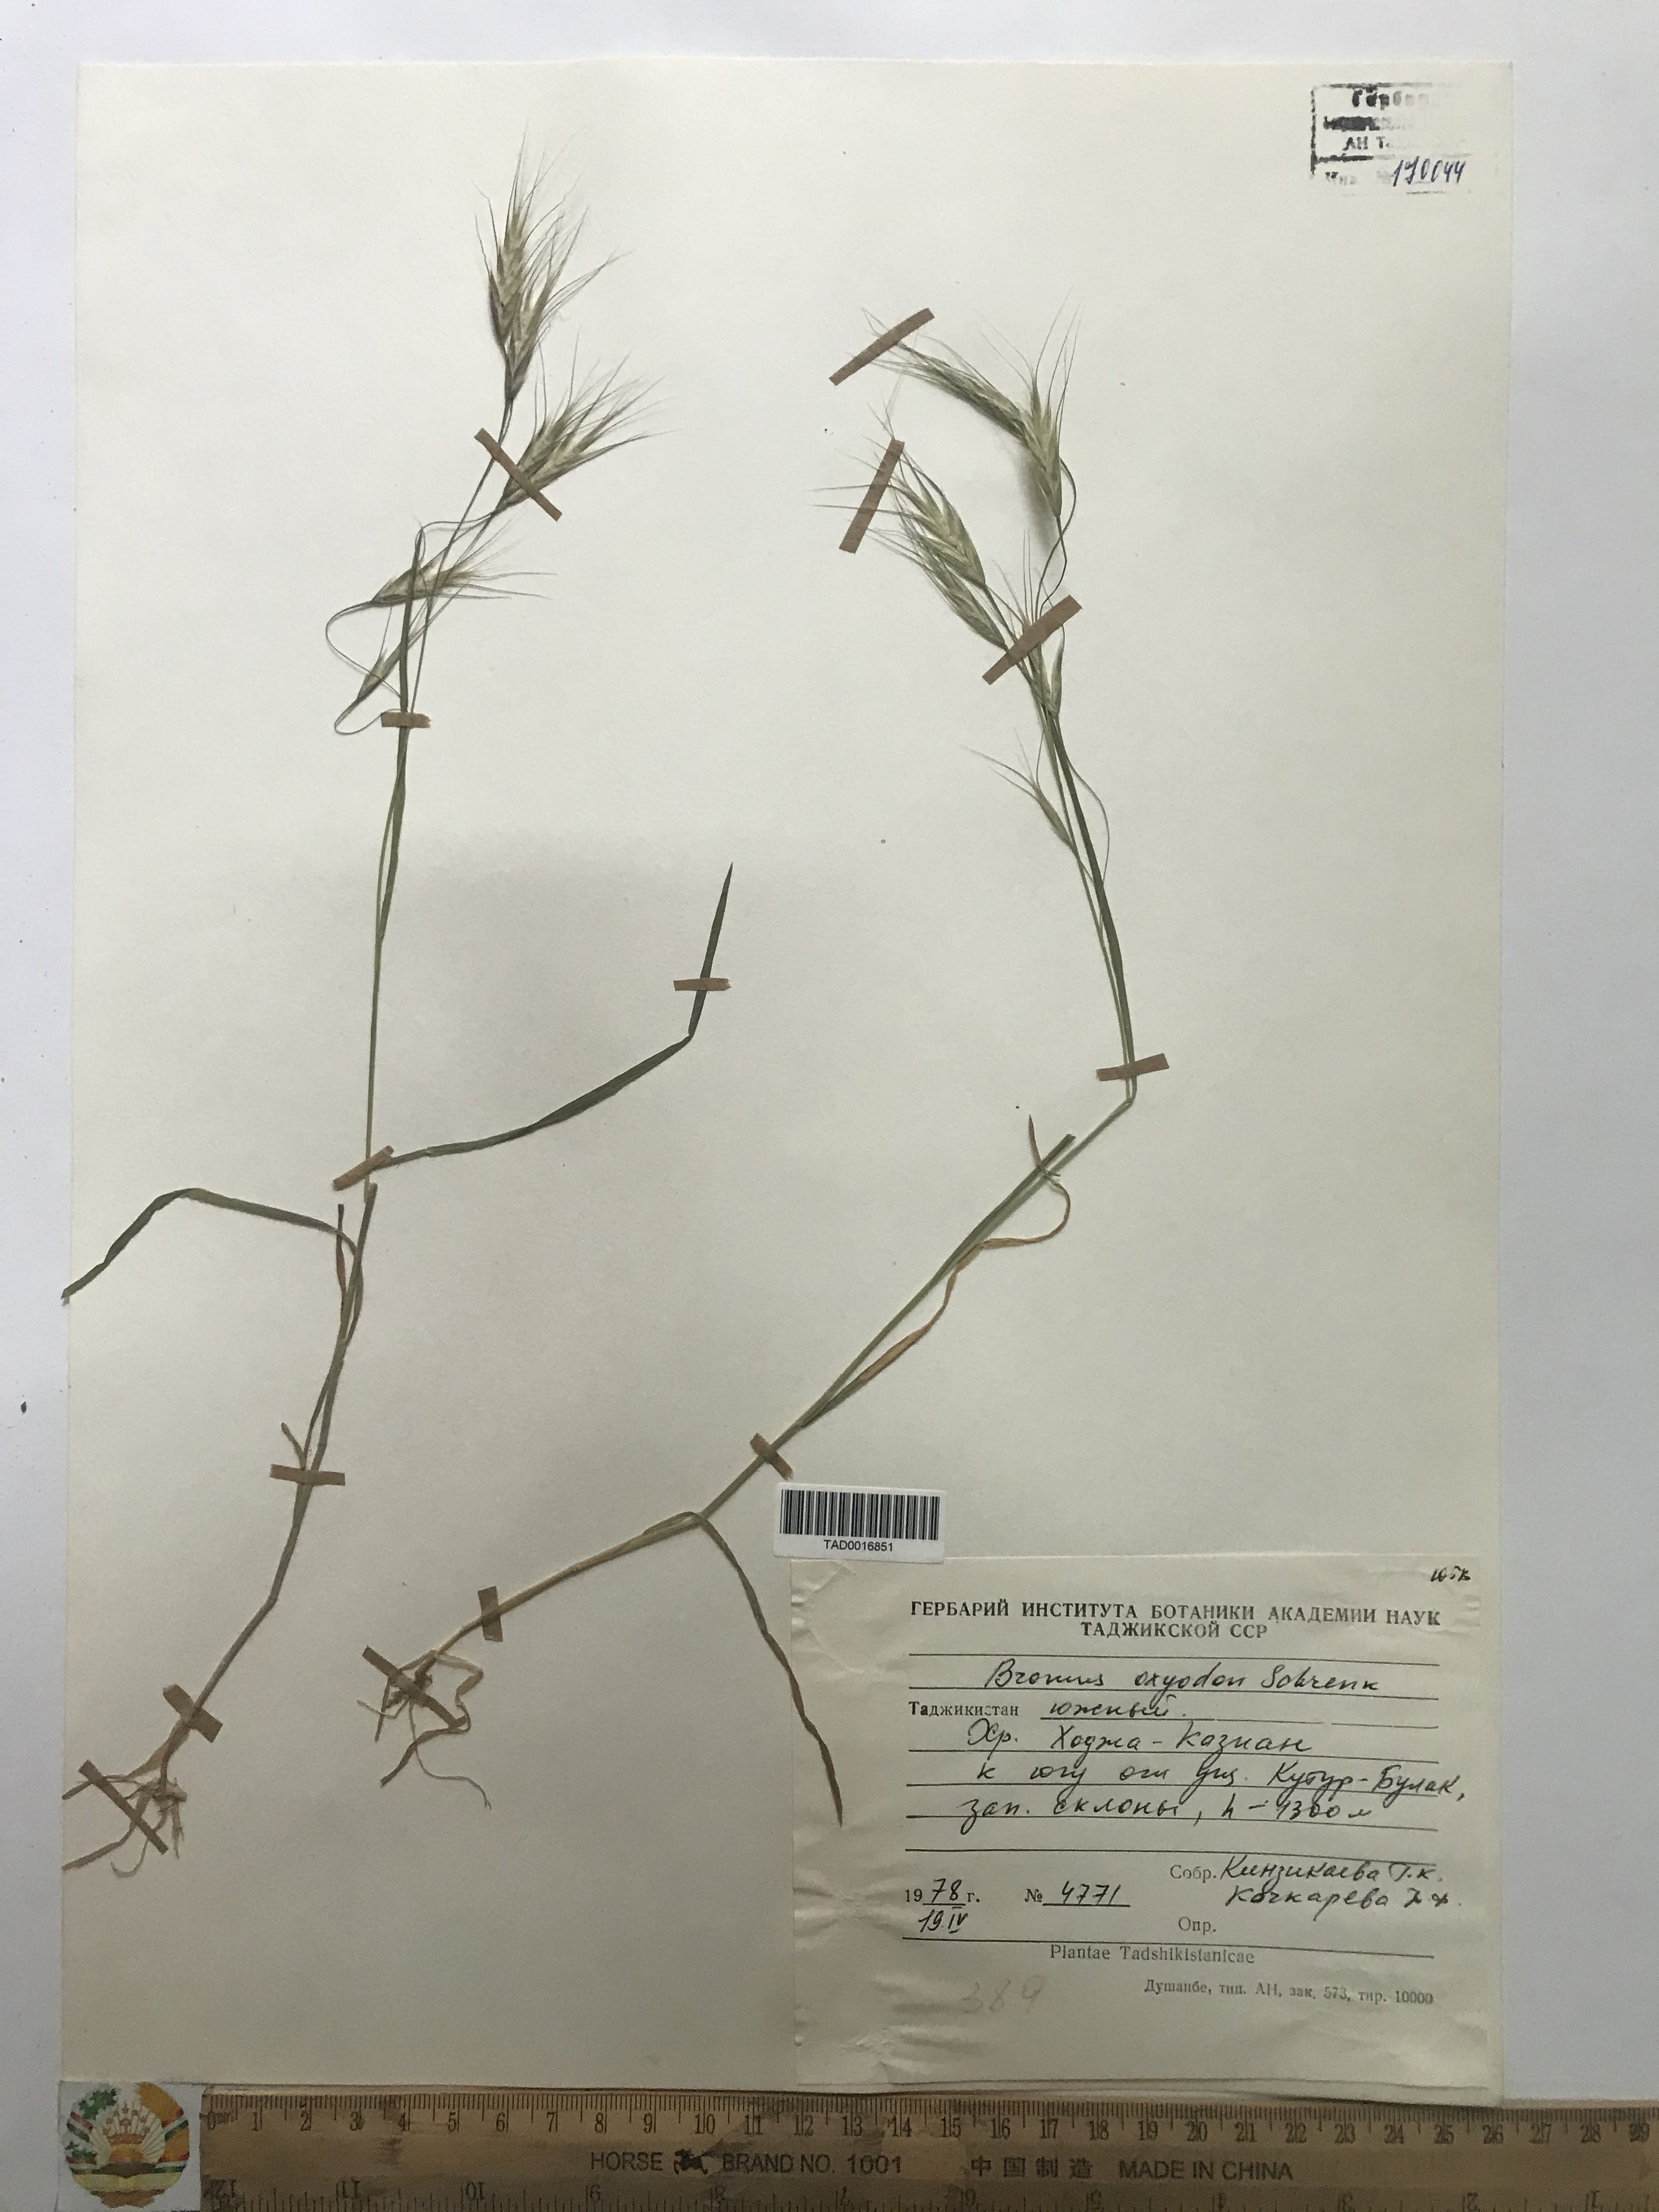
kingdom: Plantae
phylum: Tracheophyta
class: Liliopsida
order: Poales
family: Poaceae
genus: Bromus
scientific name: Bromus oxyodon
